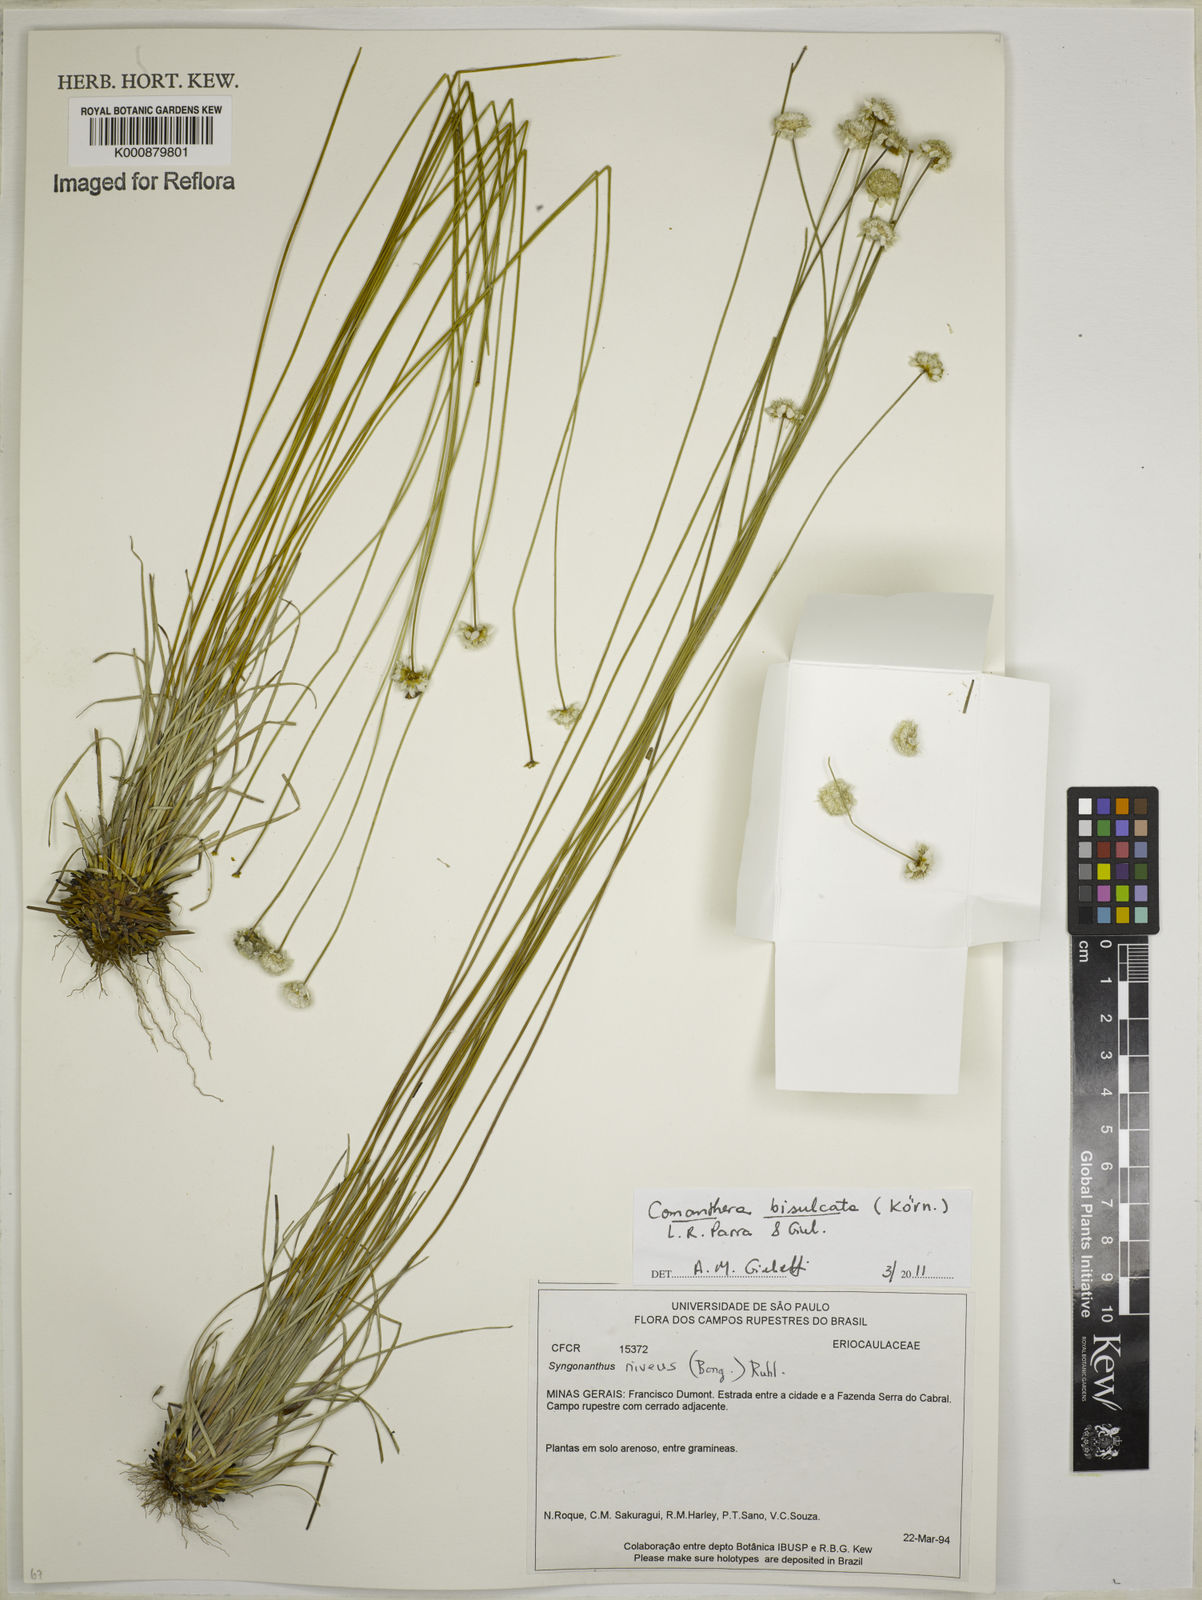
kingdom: Plantae
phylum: Tracheophyta
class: Liliopsida
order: Poales
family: Eriocaulaceae
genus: Comanthera
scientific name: Comanthera
